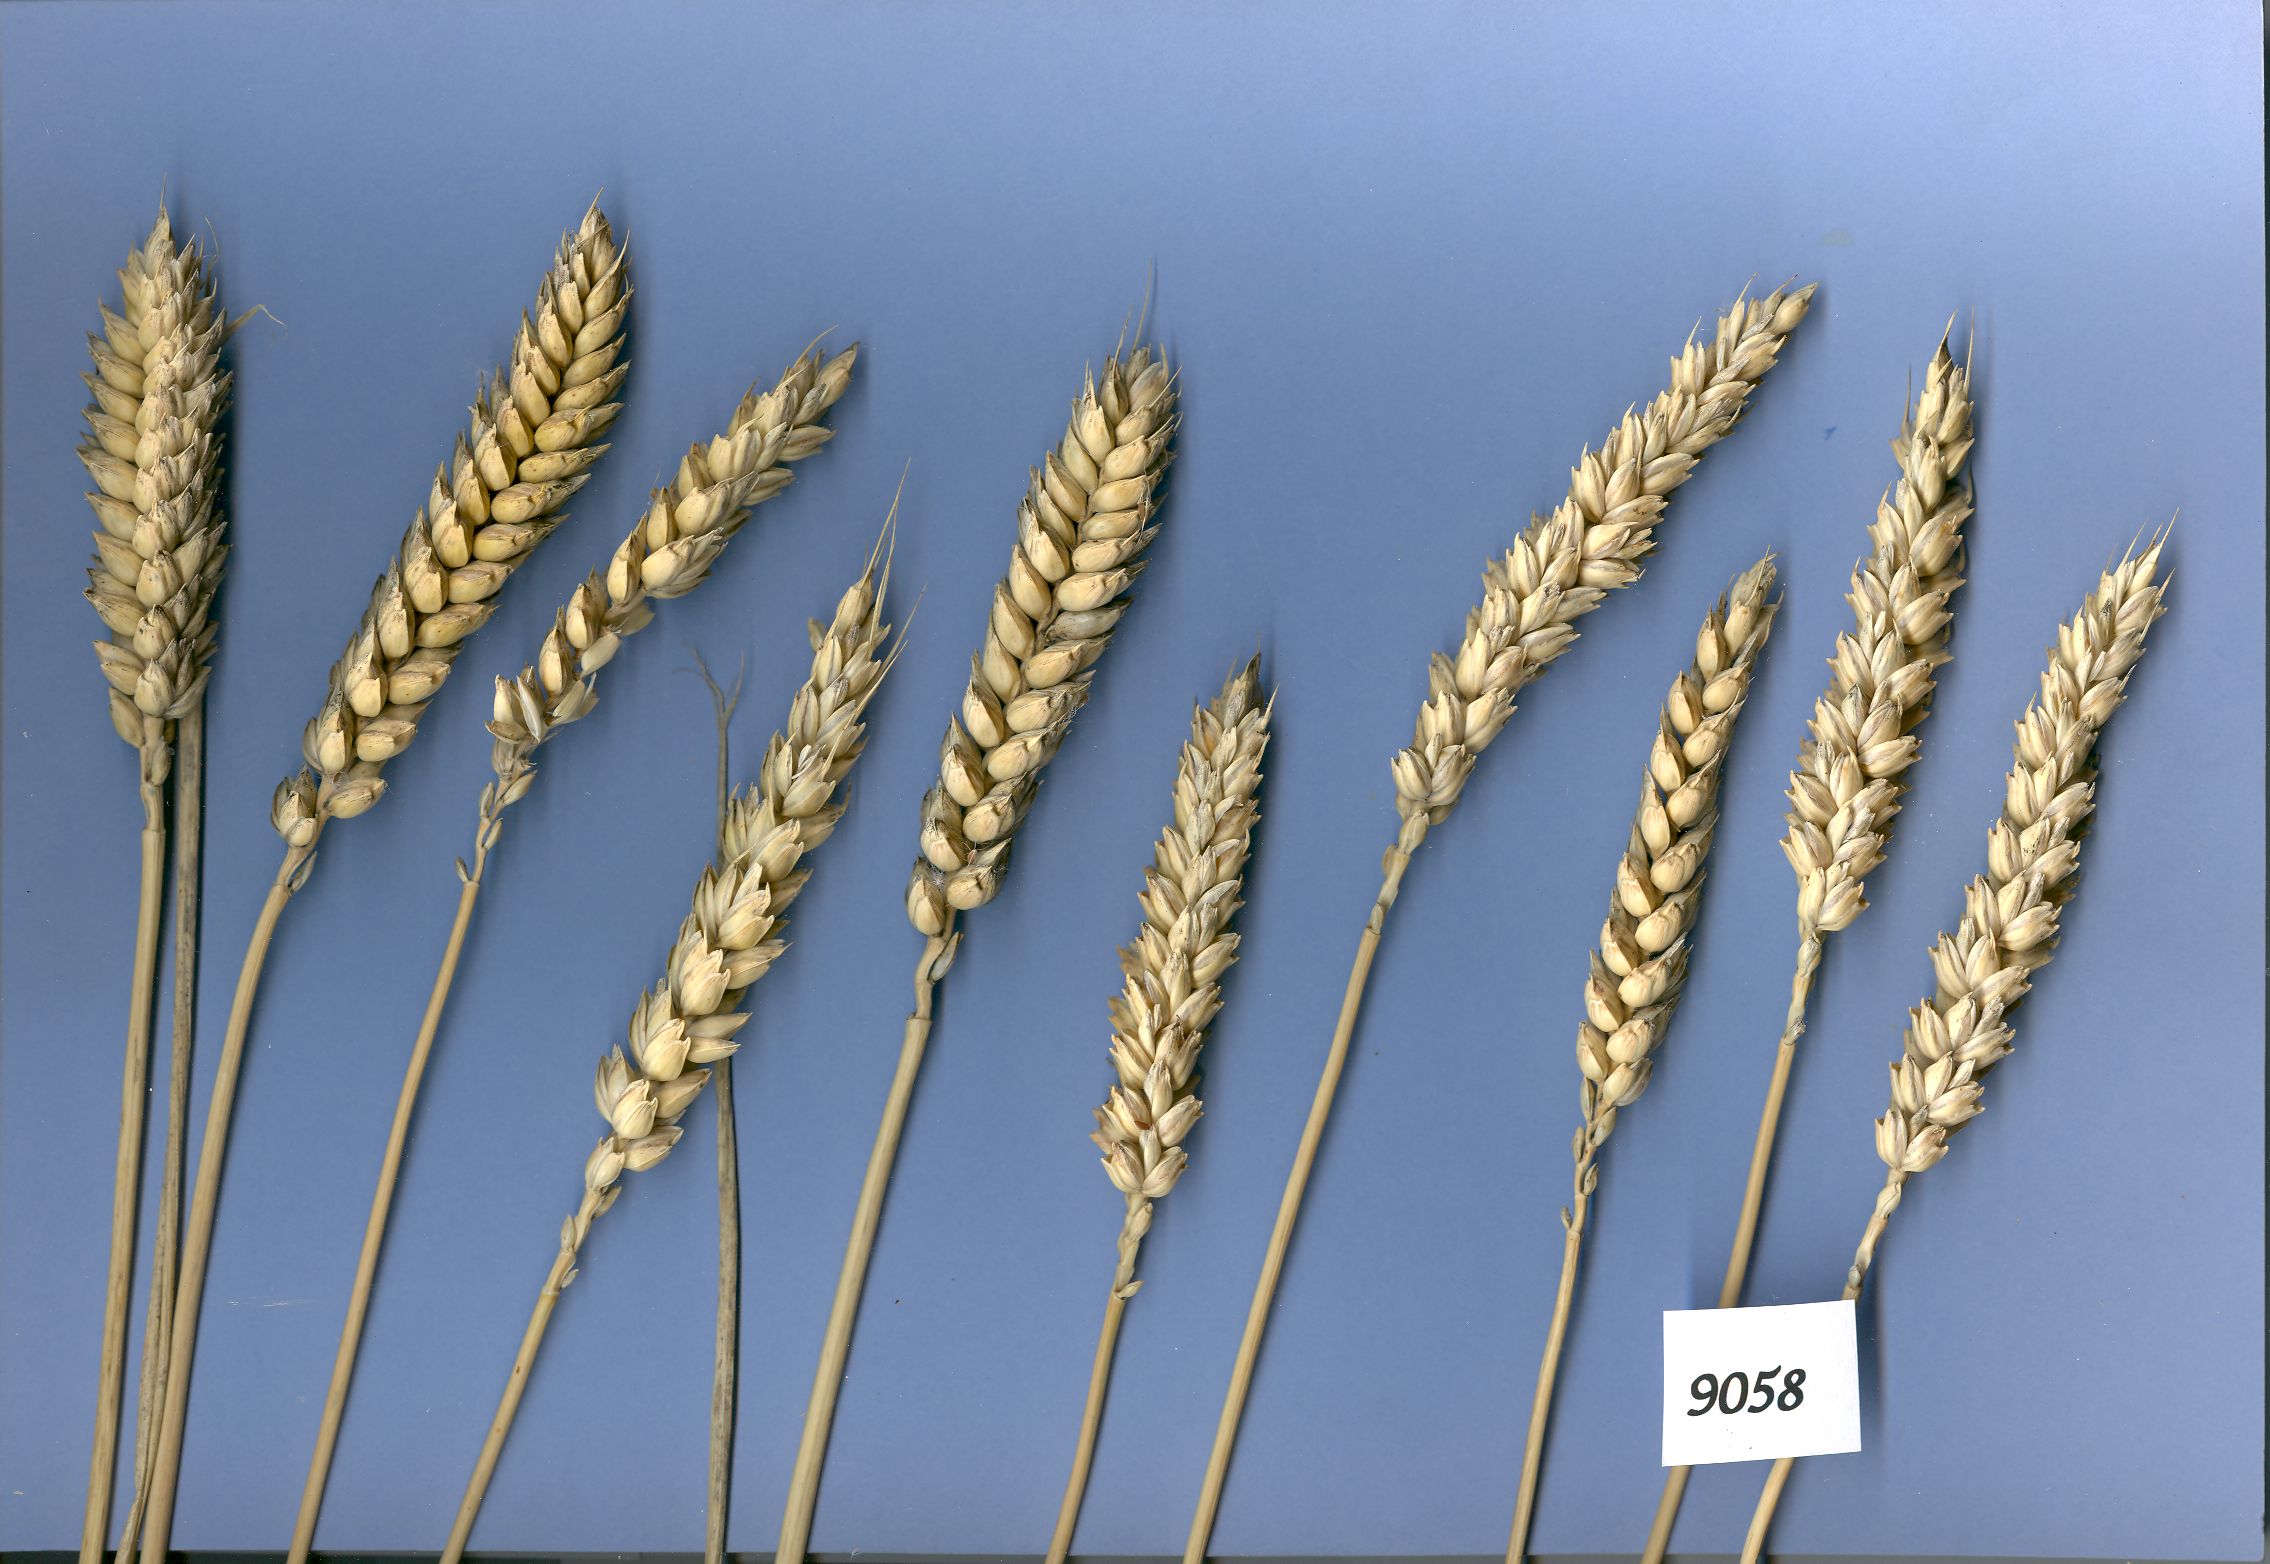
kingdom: Plantae
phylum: Tracheophyta
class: Liliopsida
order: Poales
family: Poaceae
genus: Triticum
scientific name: Triticum aestivum
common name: Common wheat
